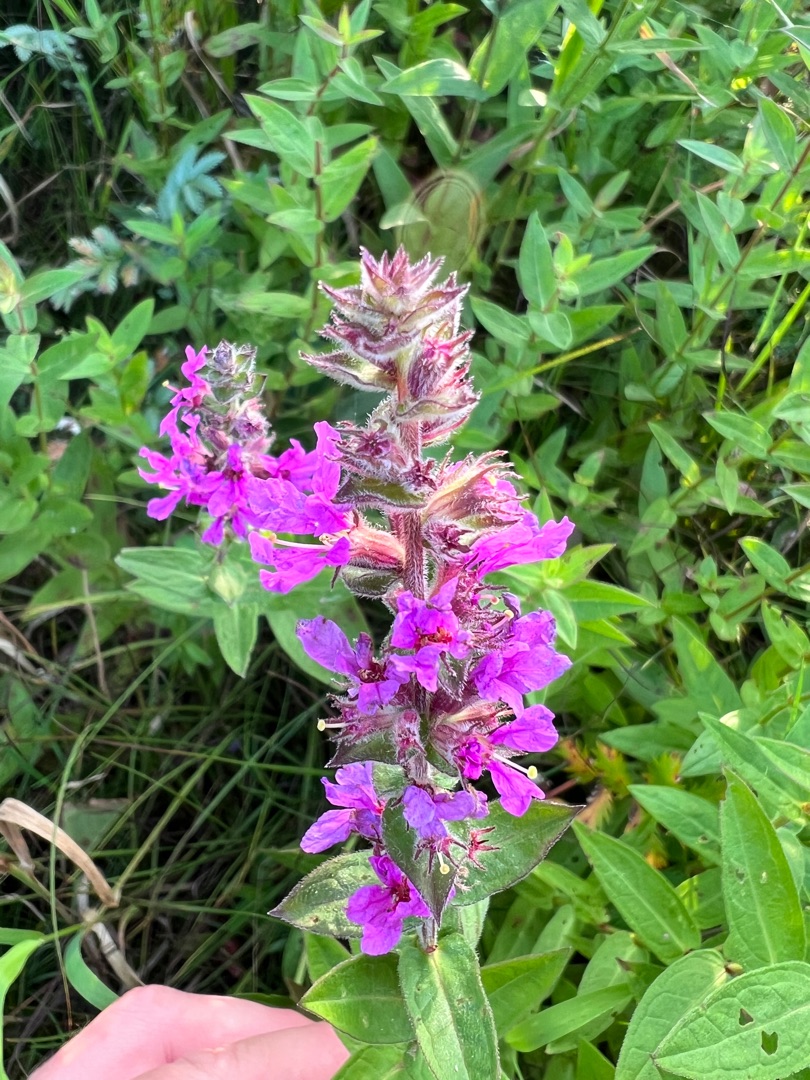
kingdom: Plantae
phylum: Tracheophyta
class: Magnoliopsida
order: Myrtales
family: Lythraceae
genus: Lythrum
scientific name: Lythrum salicaria
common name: Kattehale
